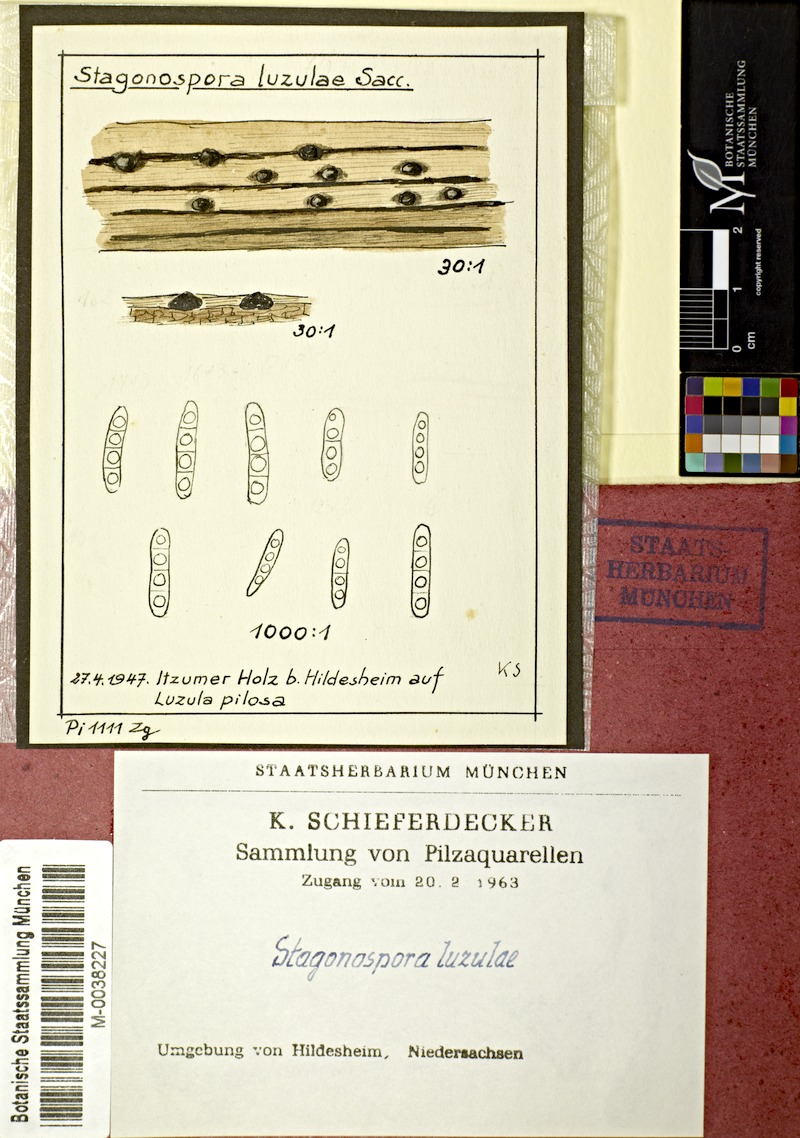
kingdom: Plantae
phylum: Tracheophyta
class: Liliopsida
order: Poales
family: Juncaceae
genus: Luzula
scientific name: Luzula pilosa
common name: Hairy wood-rush
